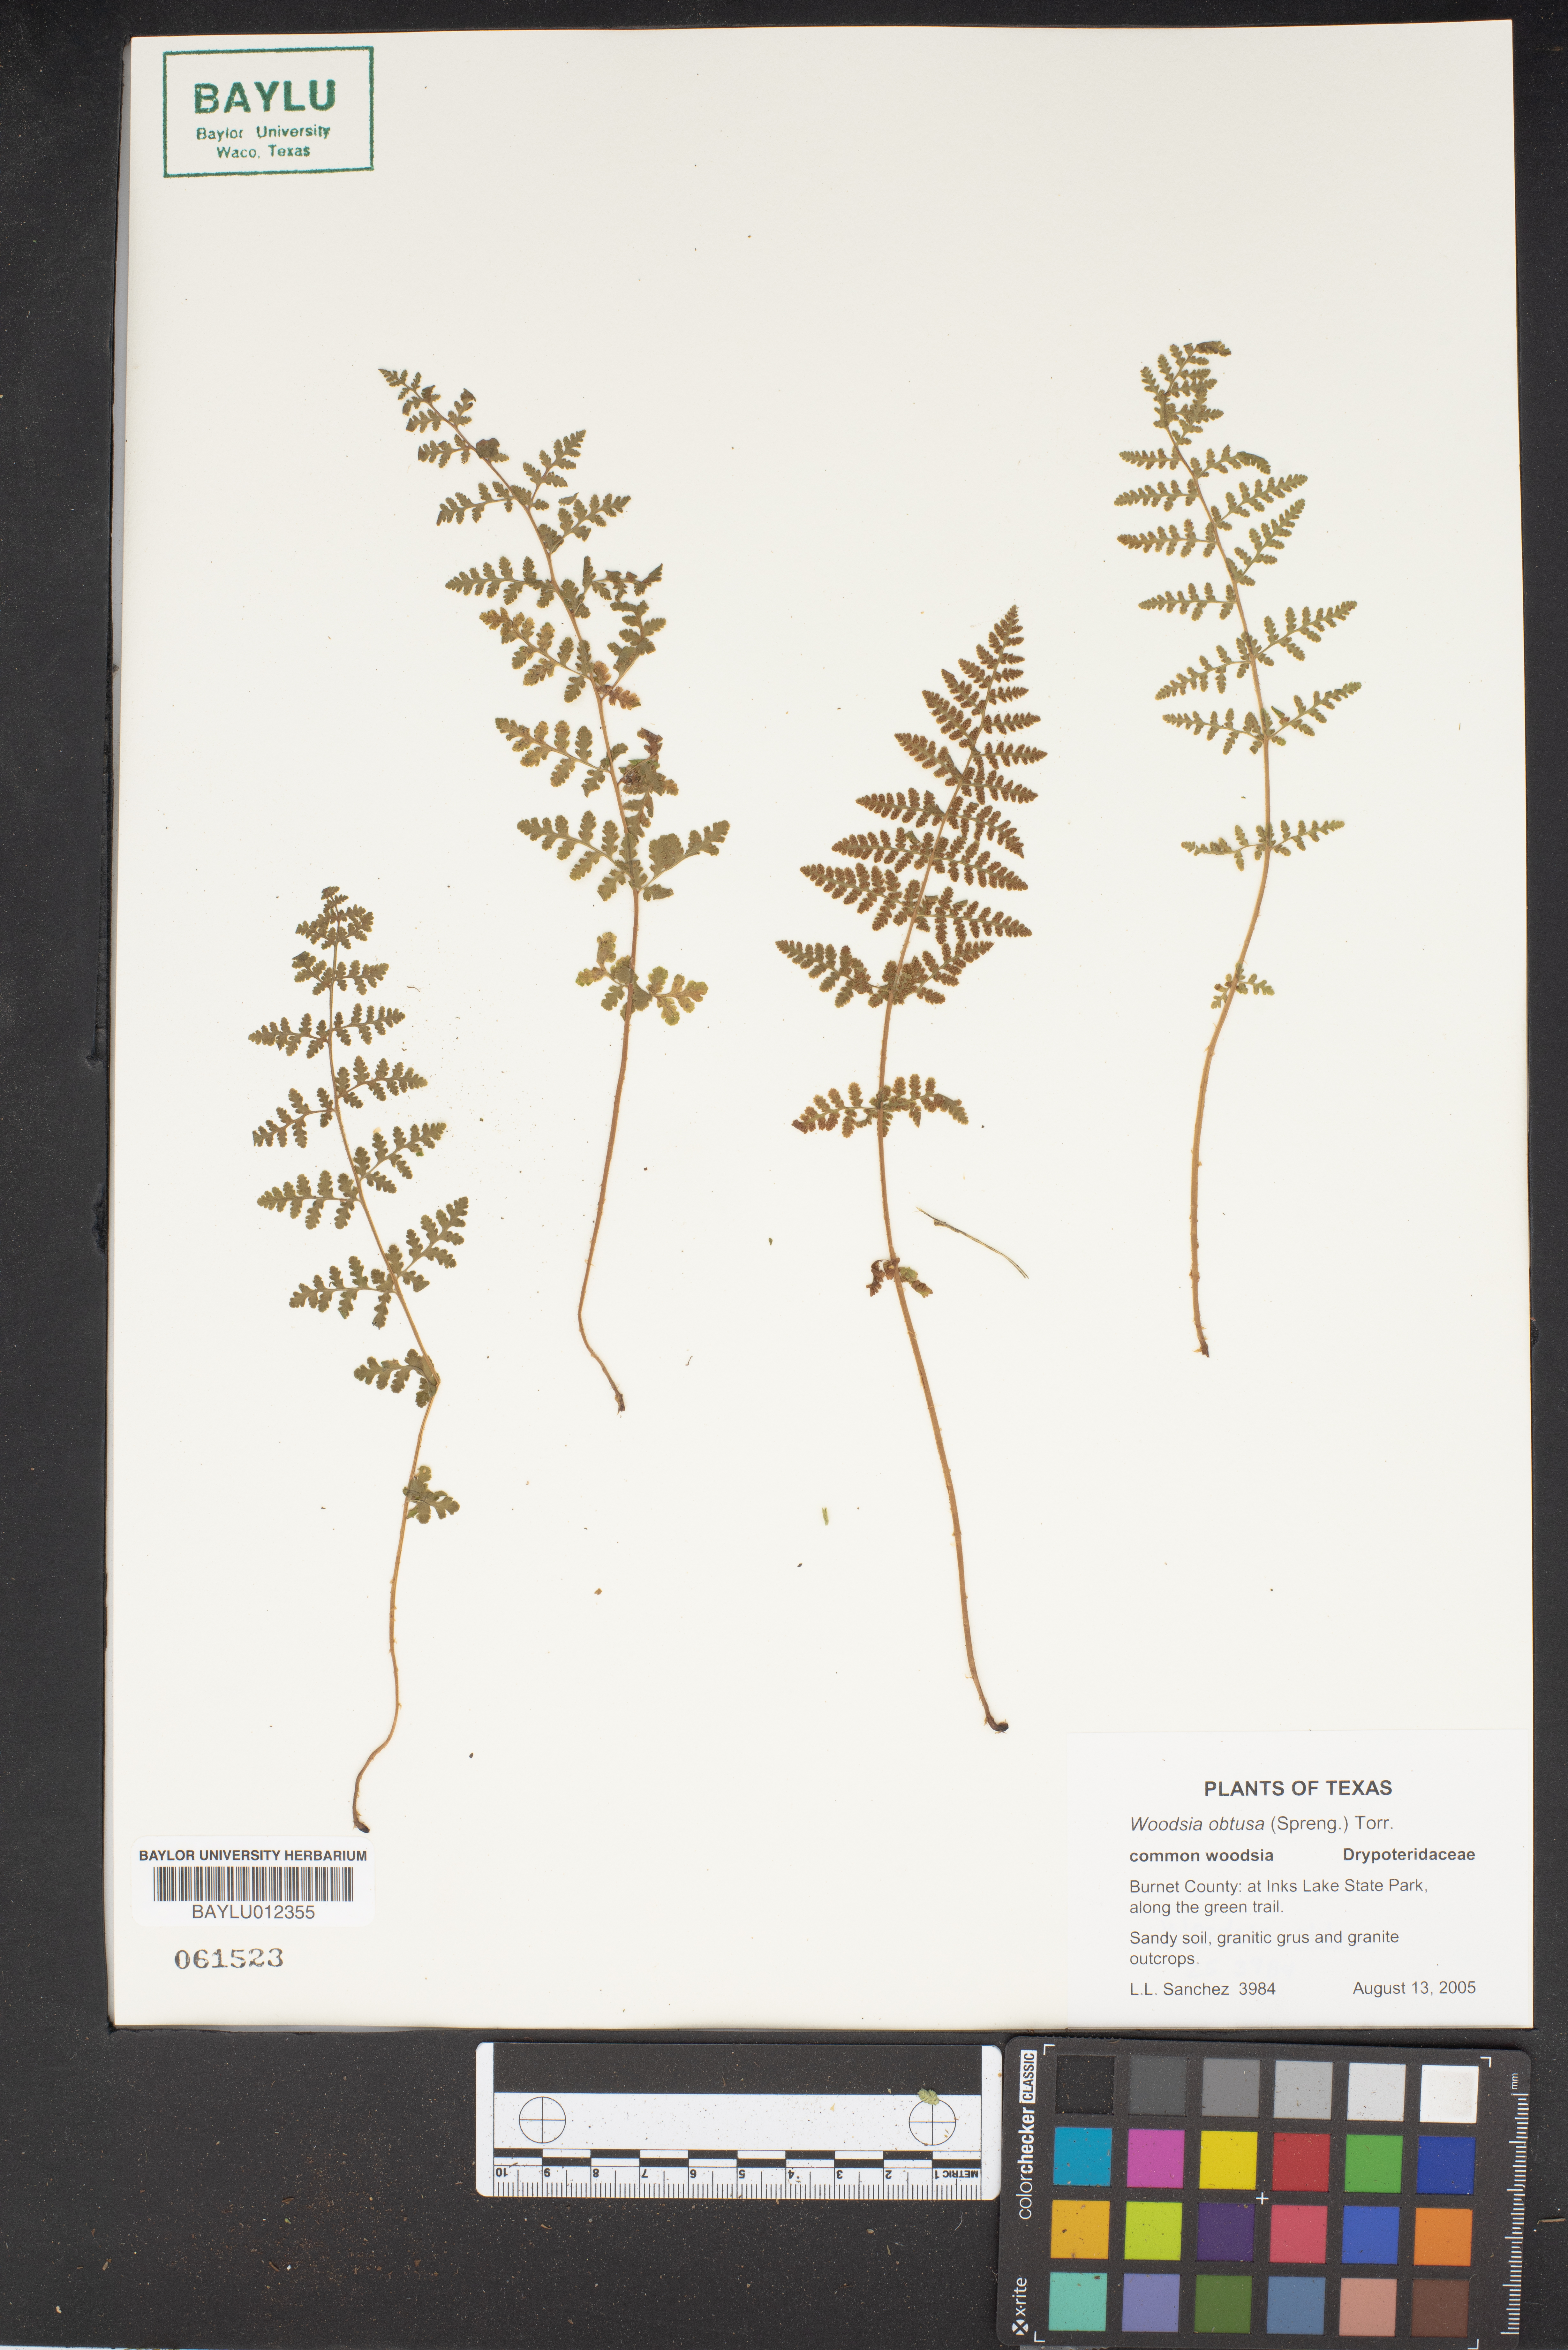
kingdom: Plantae
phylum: Tracheophyta
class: Polypodiopsida
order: Polypodiales
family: Woodsiaceae
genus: Physematium
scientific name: Physematium obtusum
